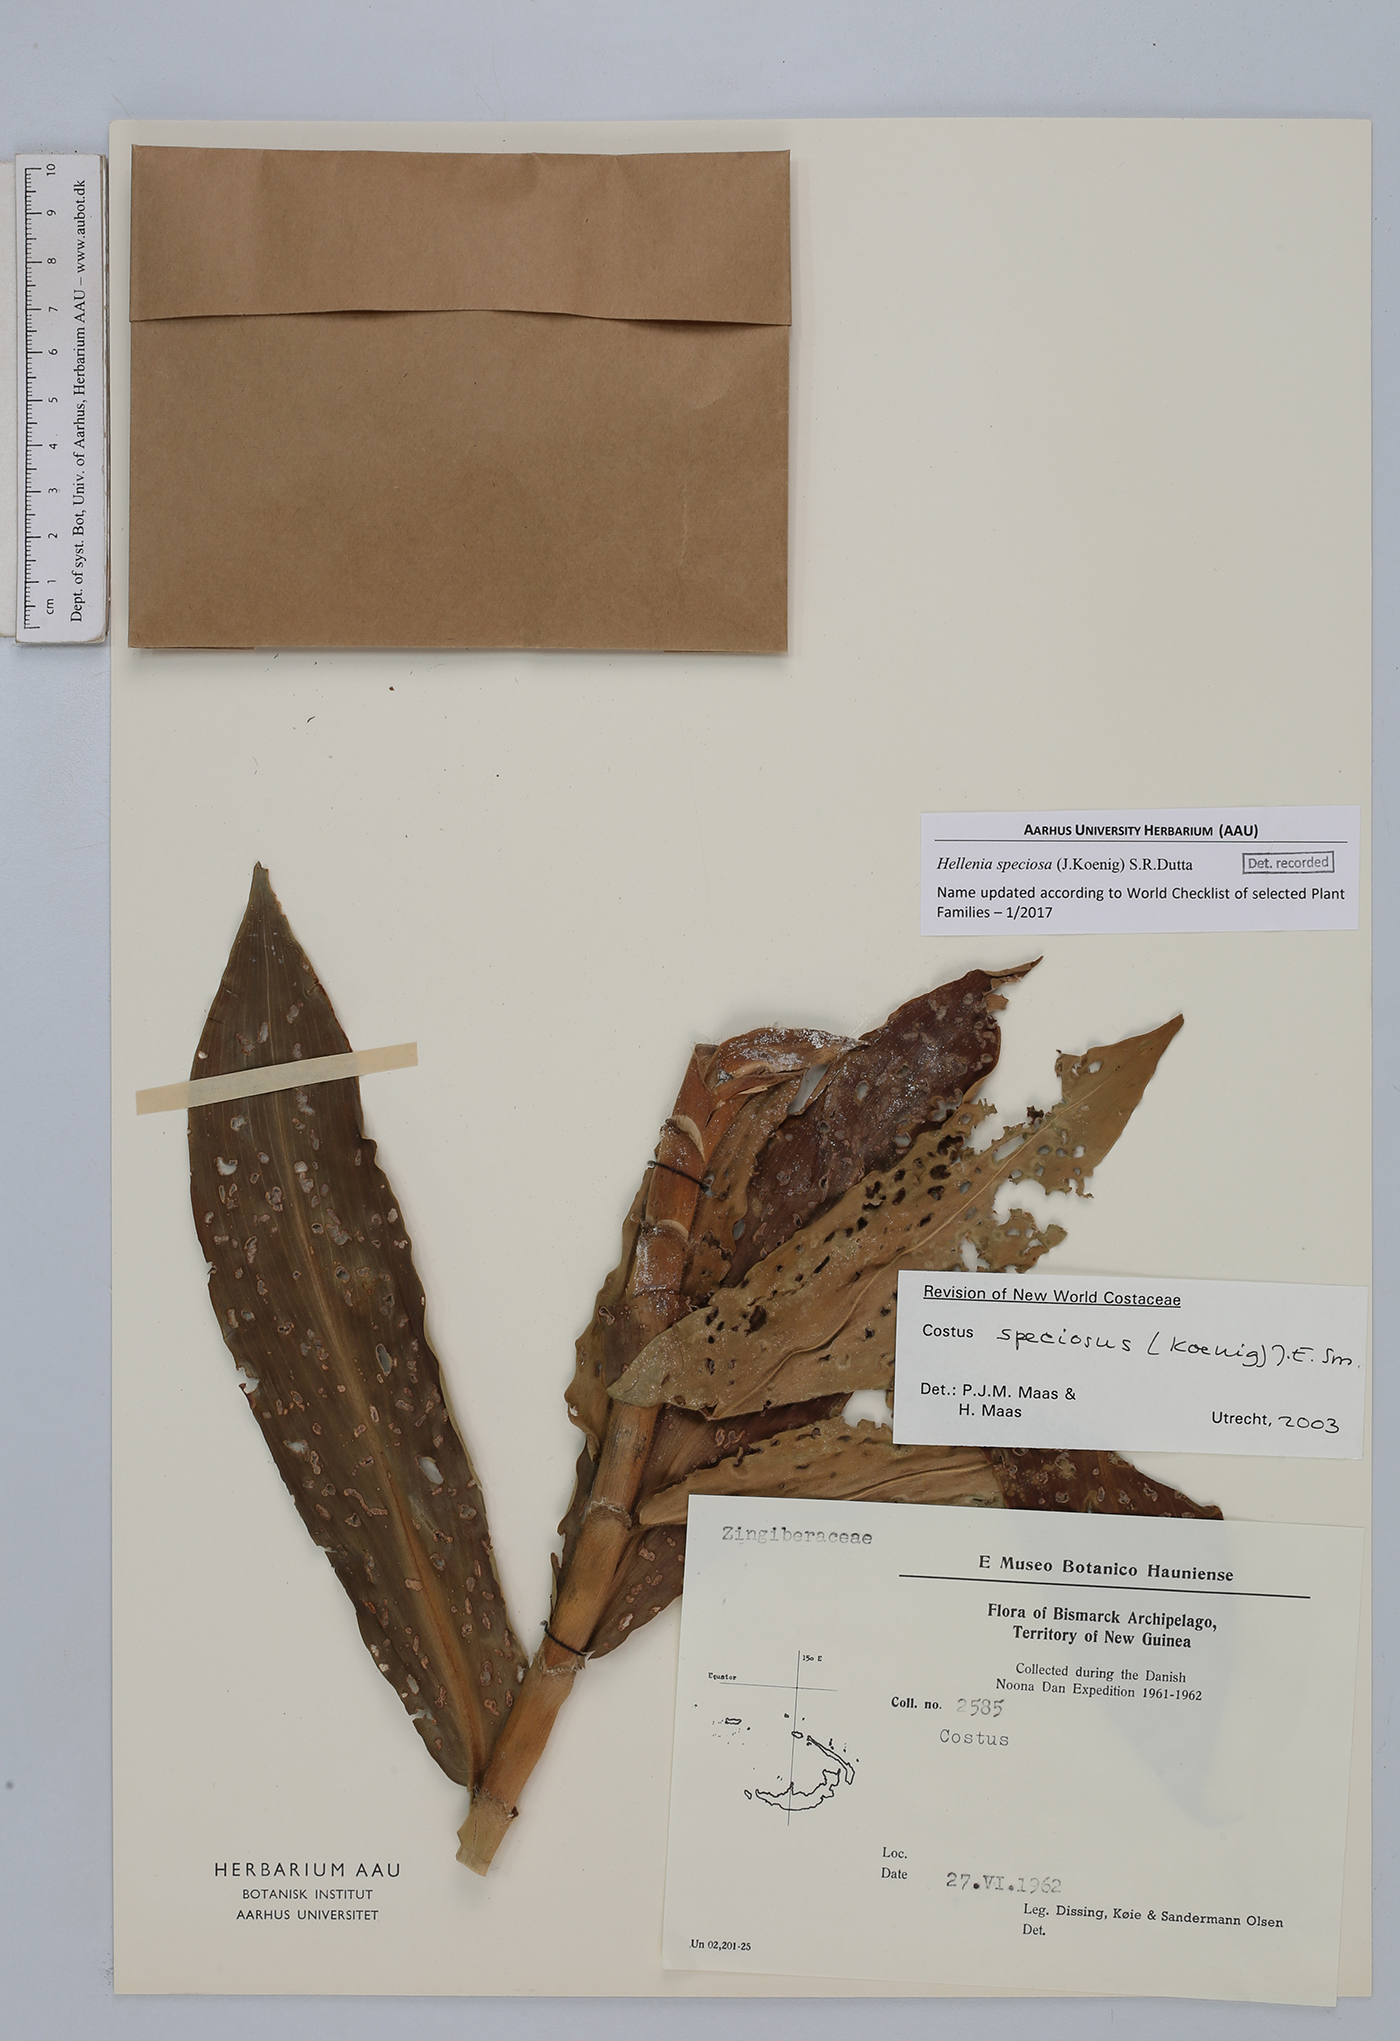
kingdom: Plantae
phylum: Tracheophyta
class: Liliopsida
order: Zingiberales
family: Costaceae
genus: Hellenia
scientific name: Hellenia speciosa
